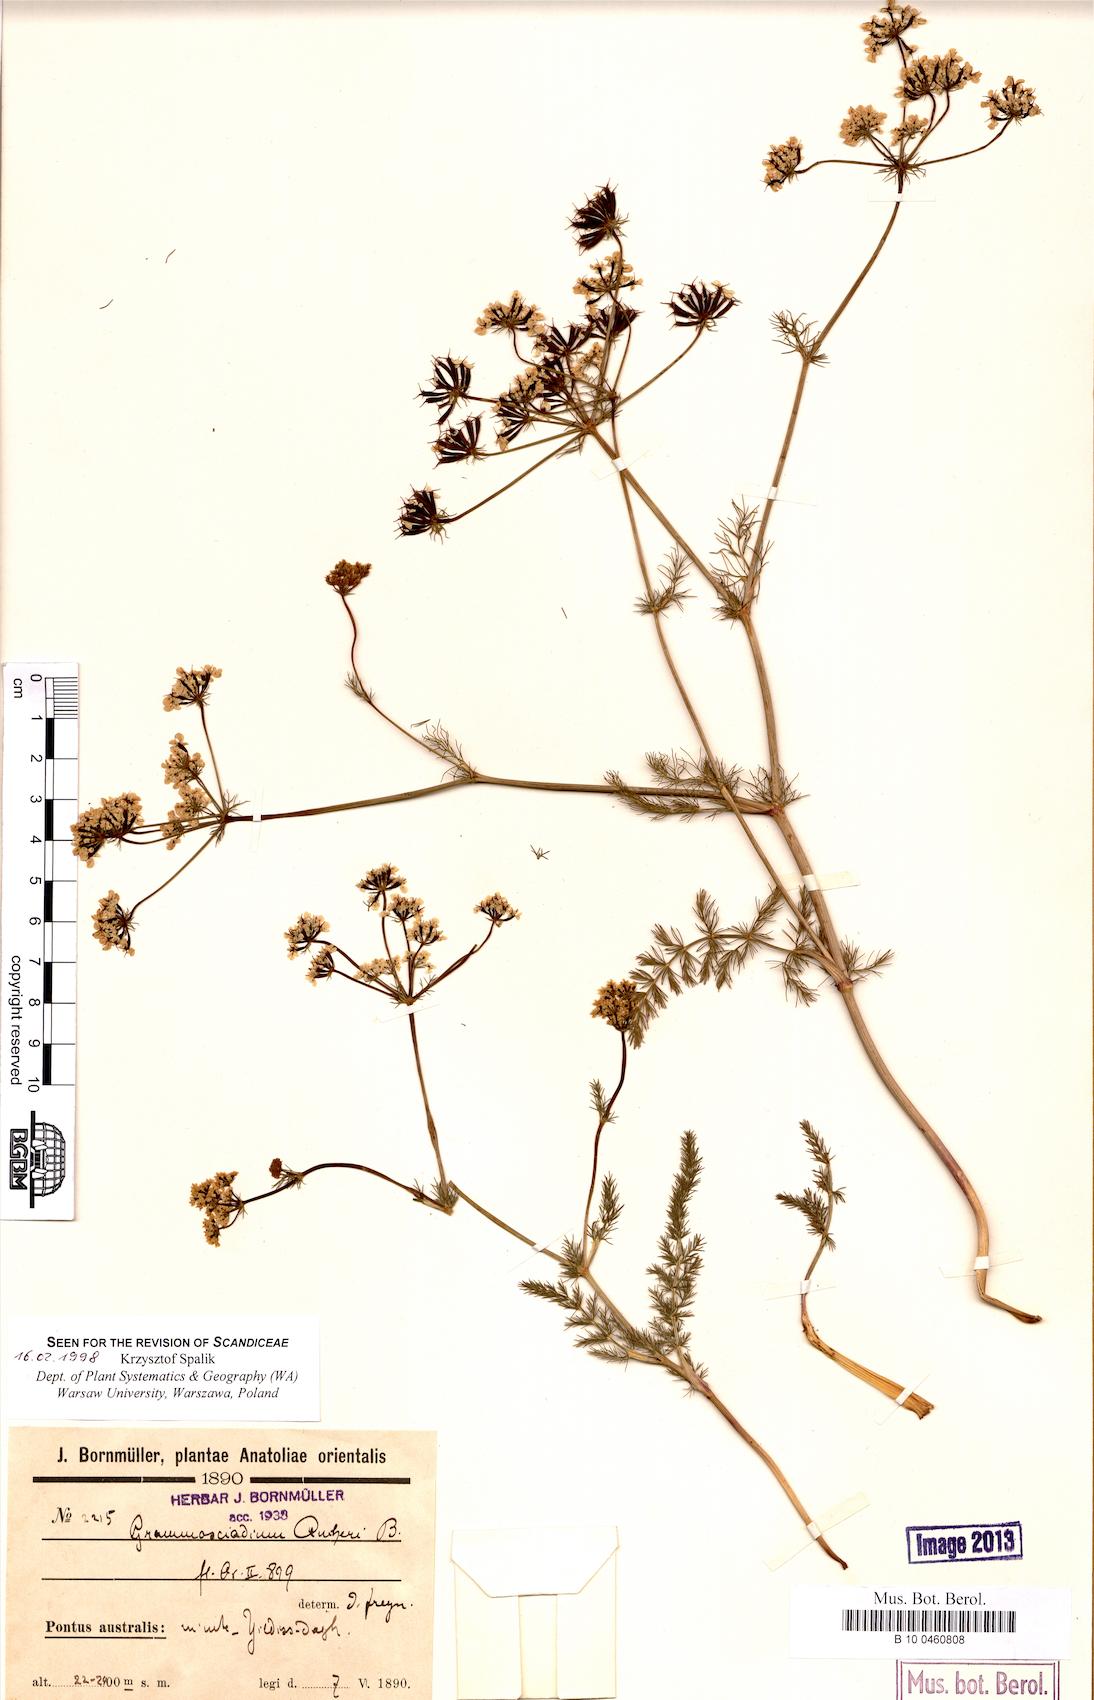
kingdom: Plantae
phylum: Tracheophyta
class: Magnoliopsida
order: Apiales
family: Apiaceae
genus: Grammosciadium
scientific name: Grammosciadium daucoides
